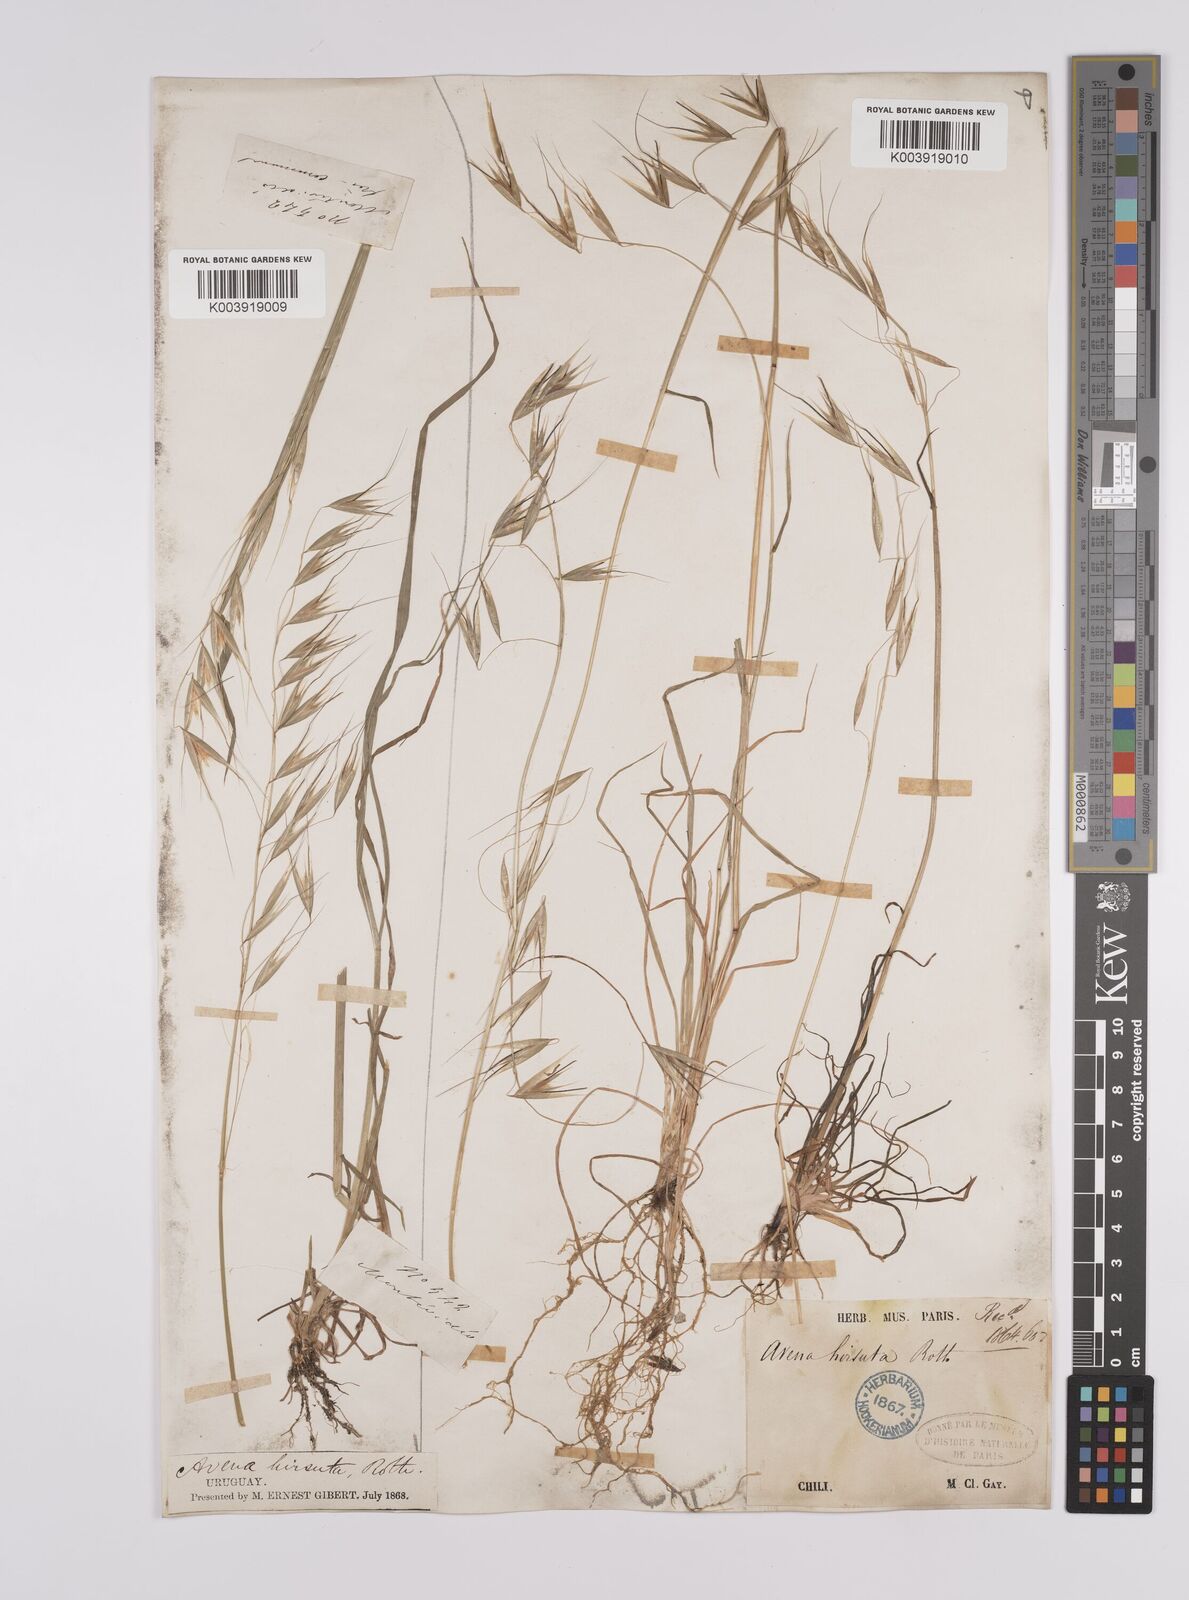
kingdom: Plantae
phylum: Tracheophyta
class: Liliopsida
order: Poales
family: Poaceae
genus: Avena
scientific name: Avena
